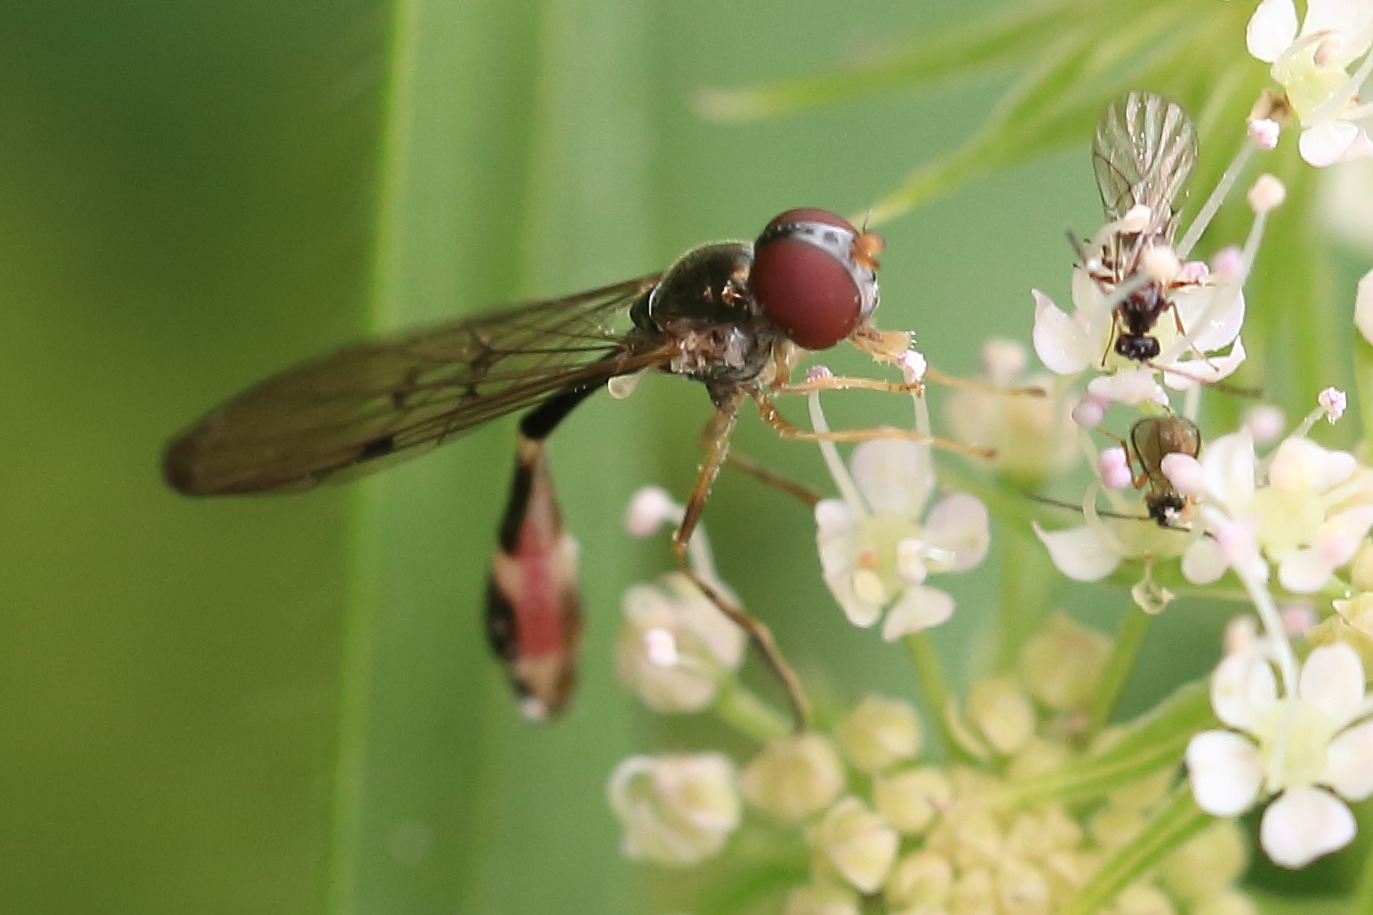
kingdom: Animalia
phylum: Arthropoda
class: Insecta
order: Diptera
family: Syrphidae
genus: Baccha
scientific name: Baccha elongata
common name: Mat spydsvirreflue
